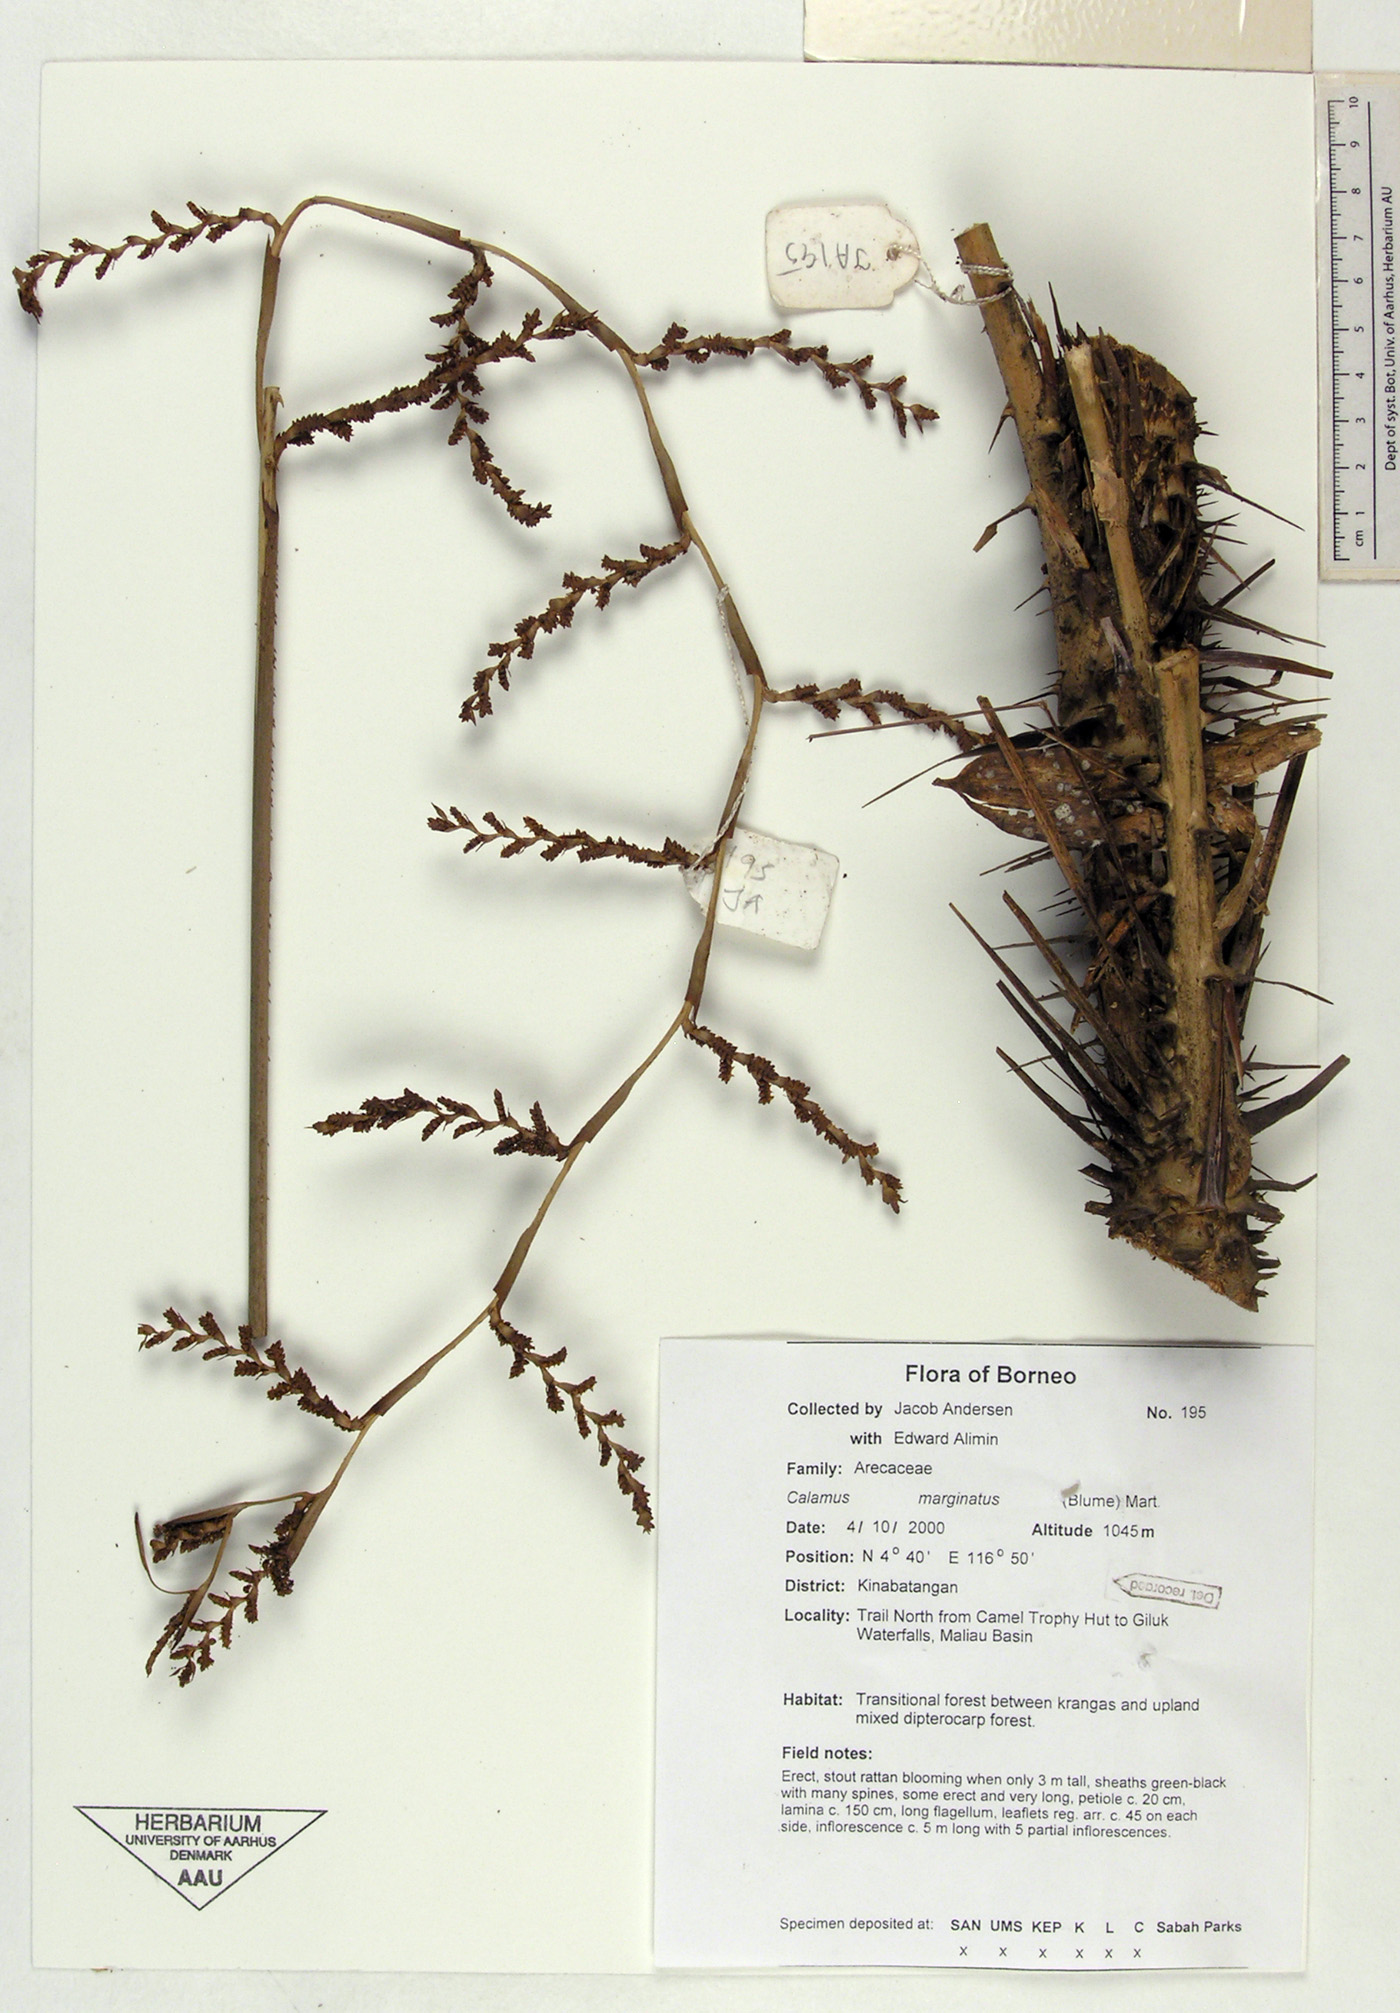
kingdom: Plantae
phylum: Tracheophyta
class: Liliopsida
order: Arecales
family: Arecaceae
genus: Calamus
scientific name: Calamus marginatus
